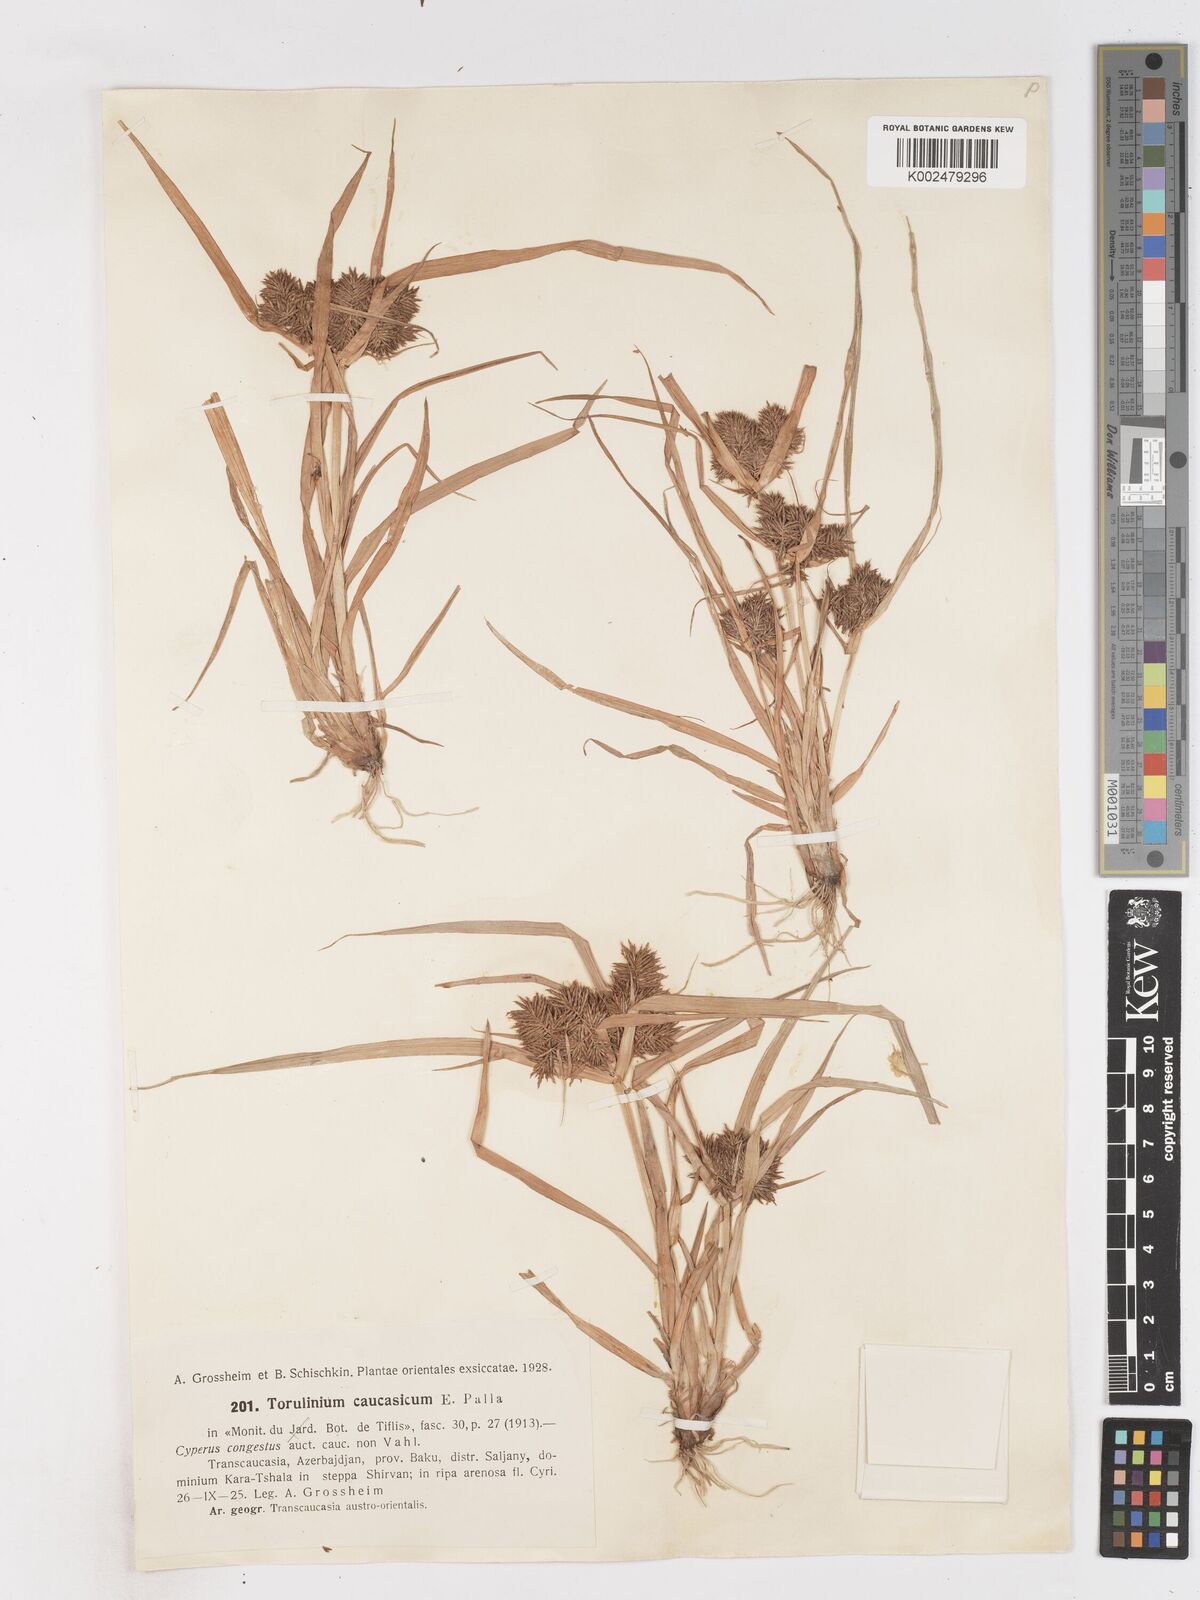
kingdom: Plantae
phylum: Tracheophyta
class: Liliopsida
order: Poales
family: Cyperaceae
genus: Cyperus
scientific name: Cyperus odoratus
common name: Fragrant flatsedge
